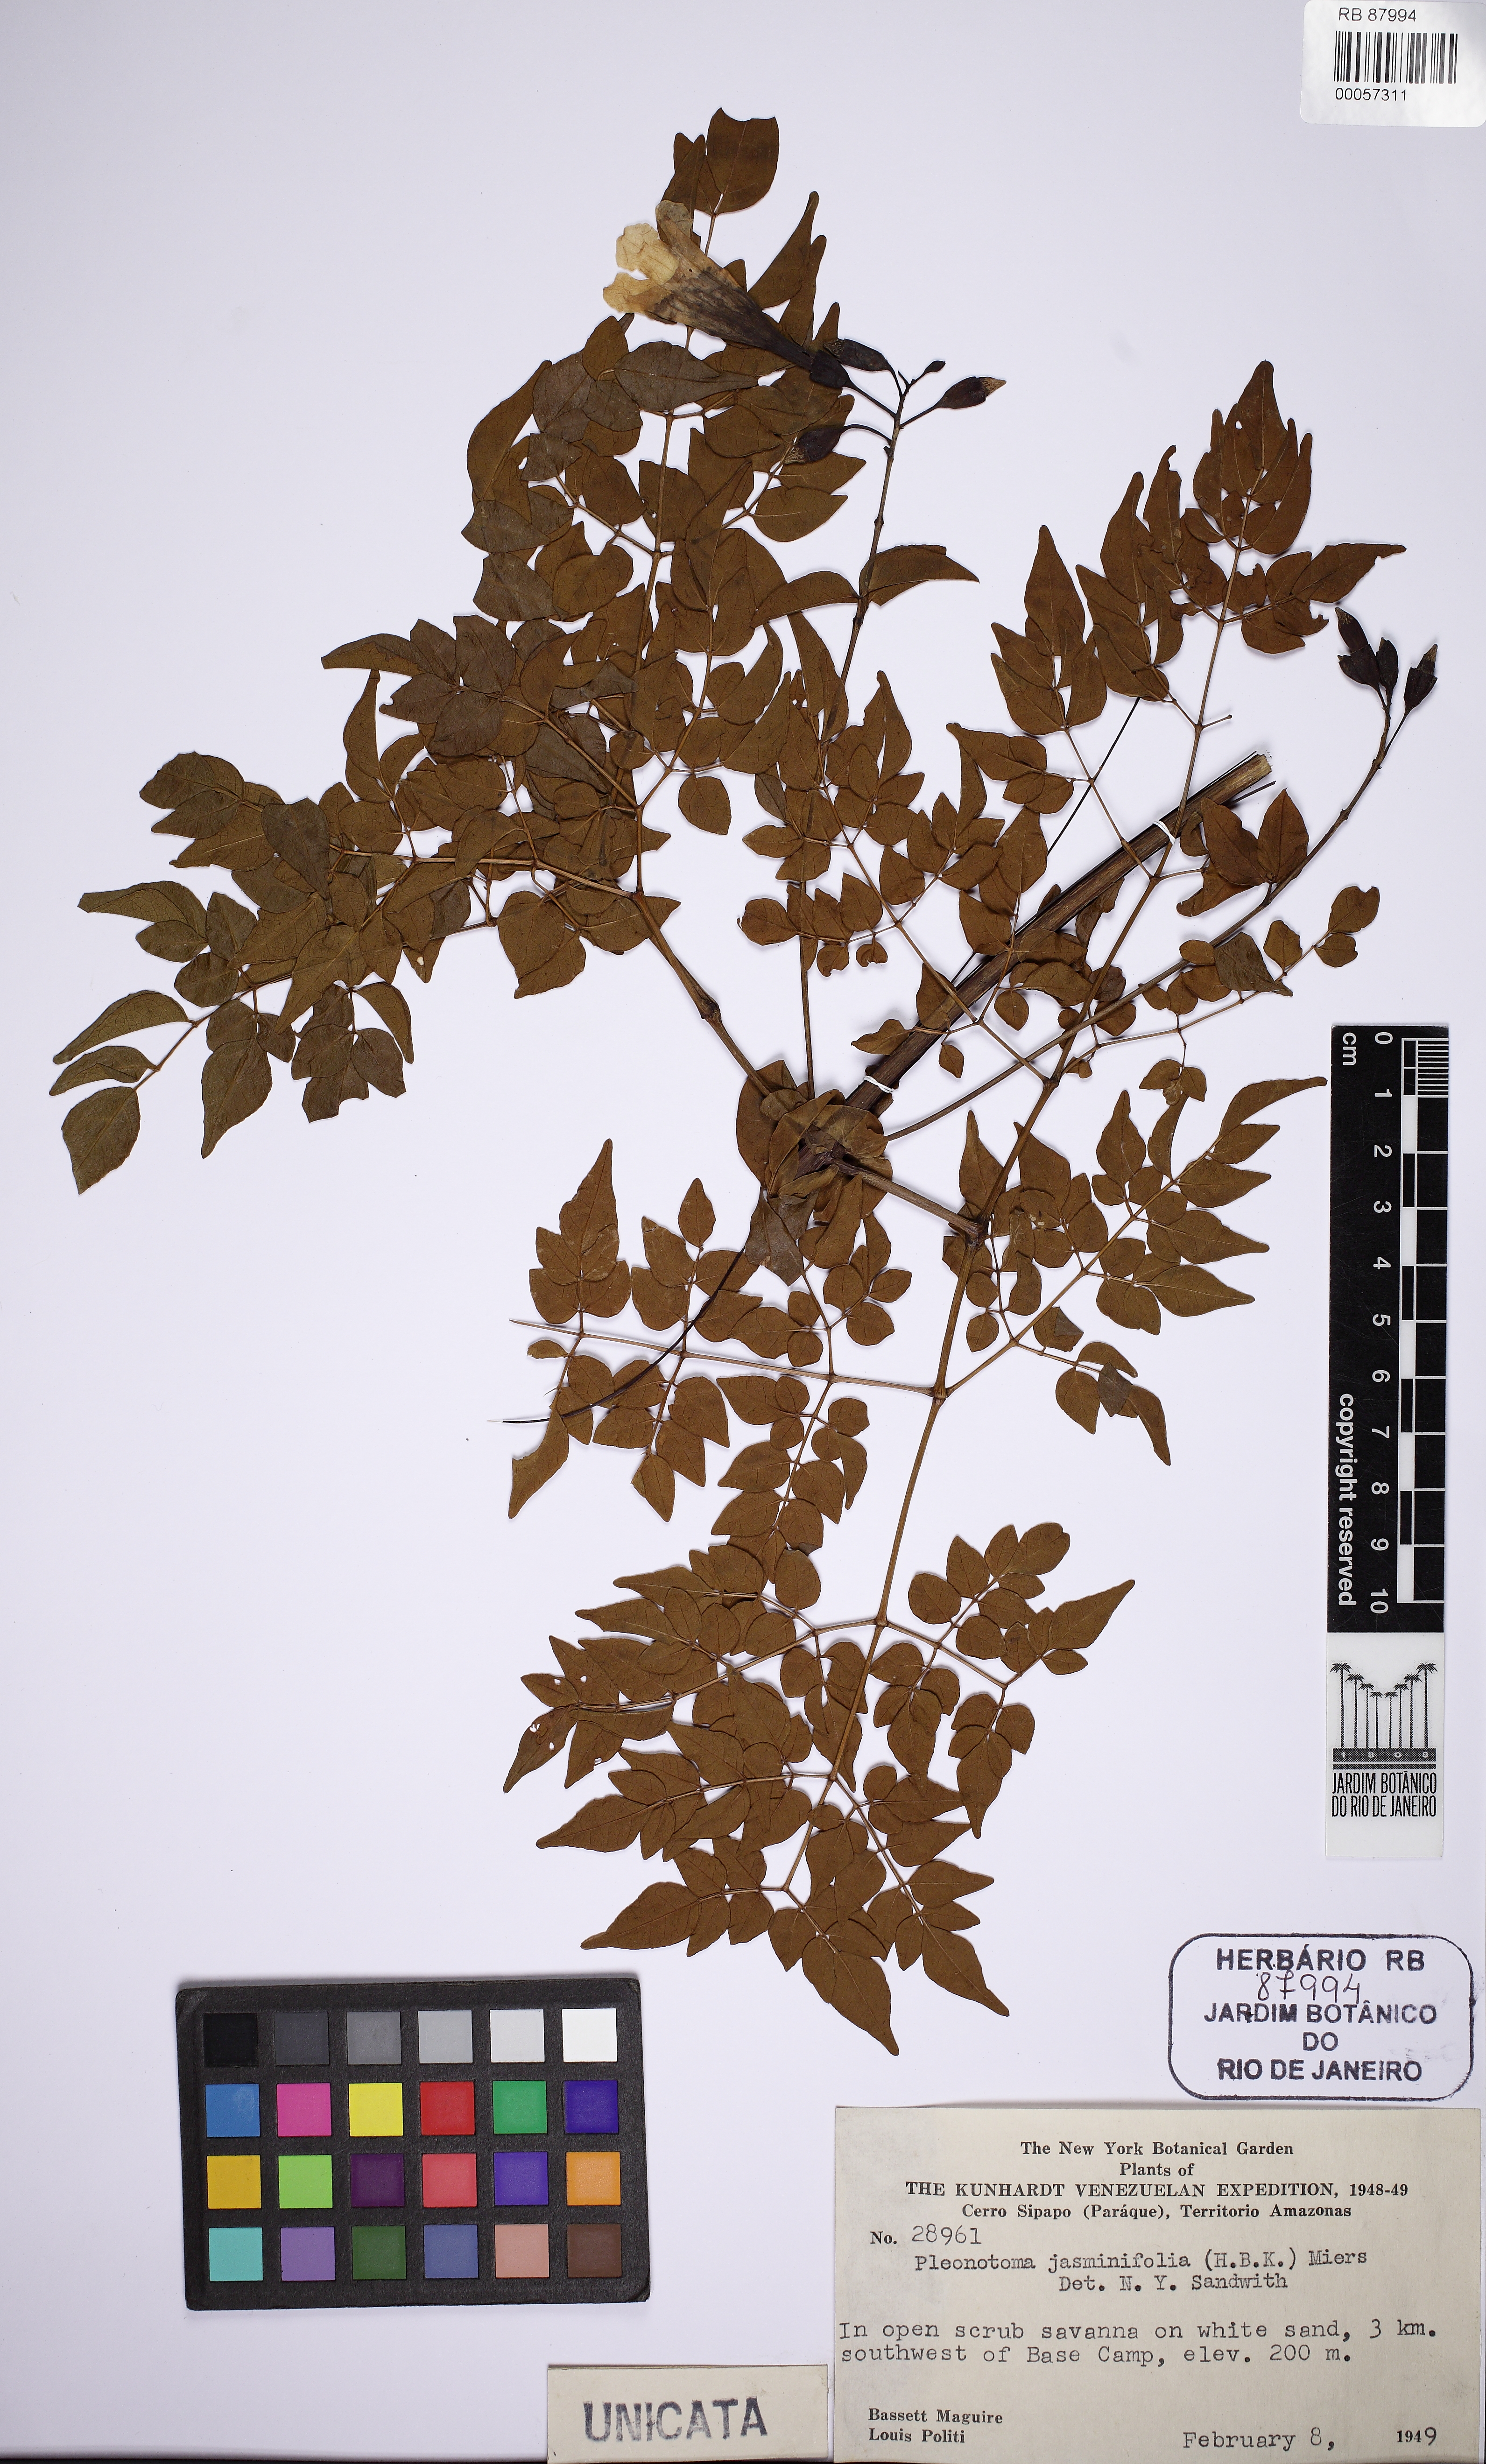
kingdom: Plantae
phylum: Tracheophyta
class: Magnoliopsida
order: Lamiales
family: Bignoniaceae
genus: Pleonotoma
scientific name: Pleonotoma jasminifolia
